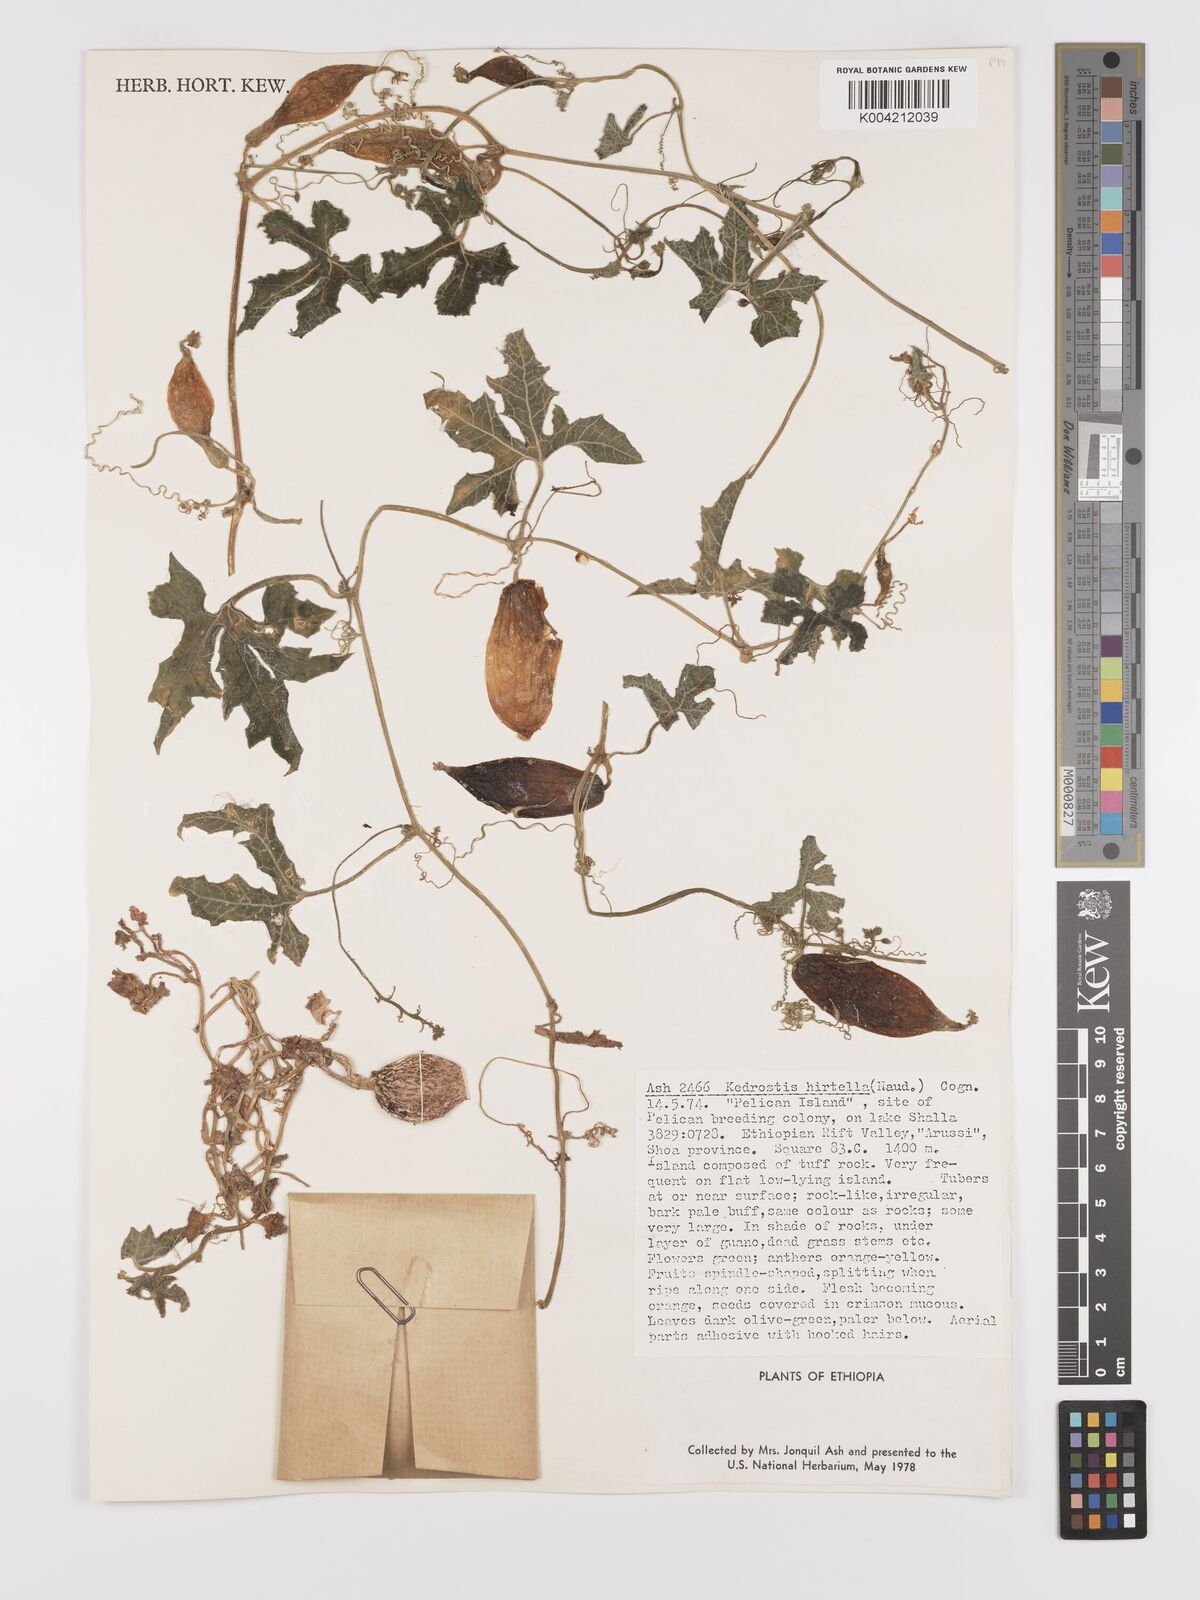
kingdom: Plantae
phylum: Tracheophyta
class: Magnoliopsida
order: Cucurbitales
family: Cucurbitaceae
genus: Kedrostis
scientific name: Kedrostis leloja
